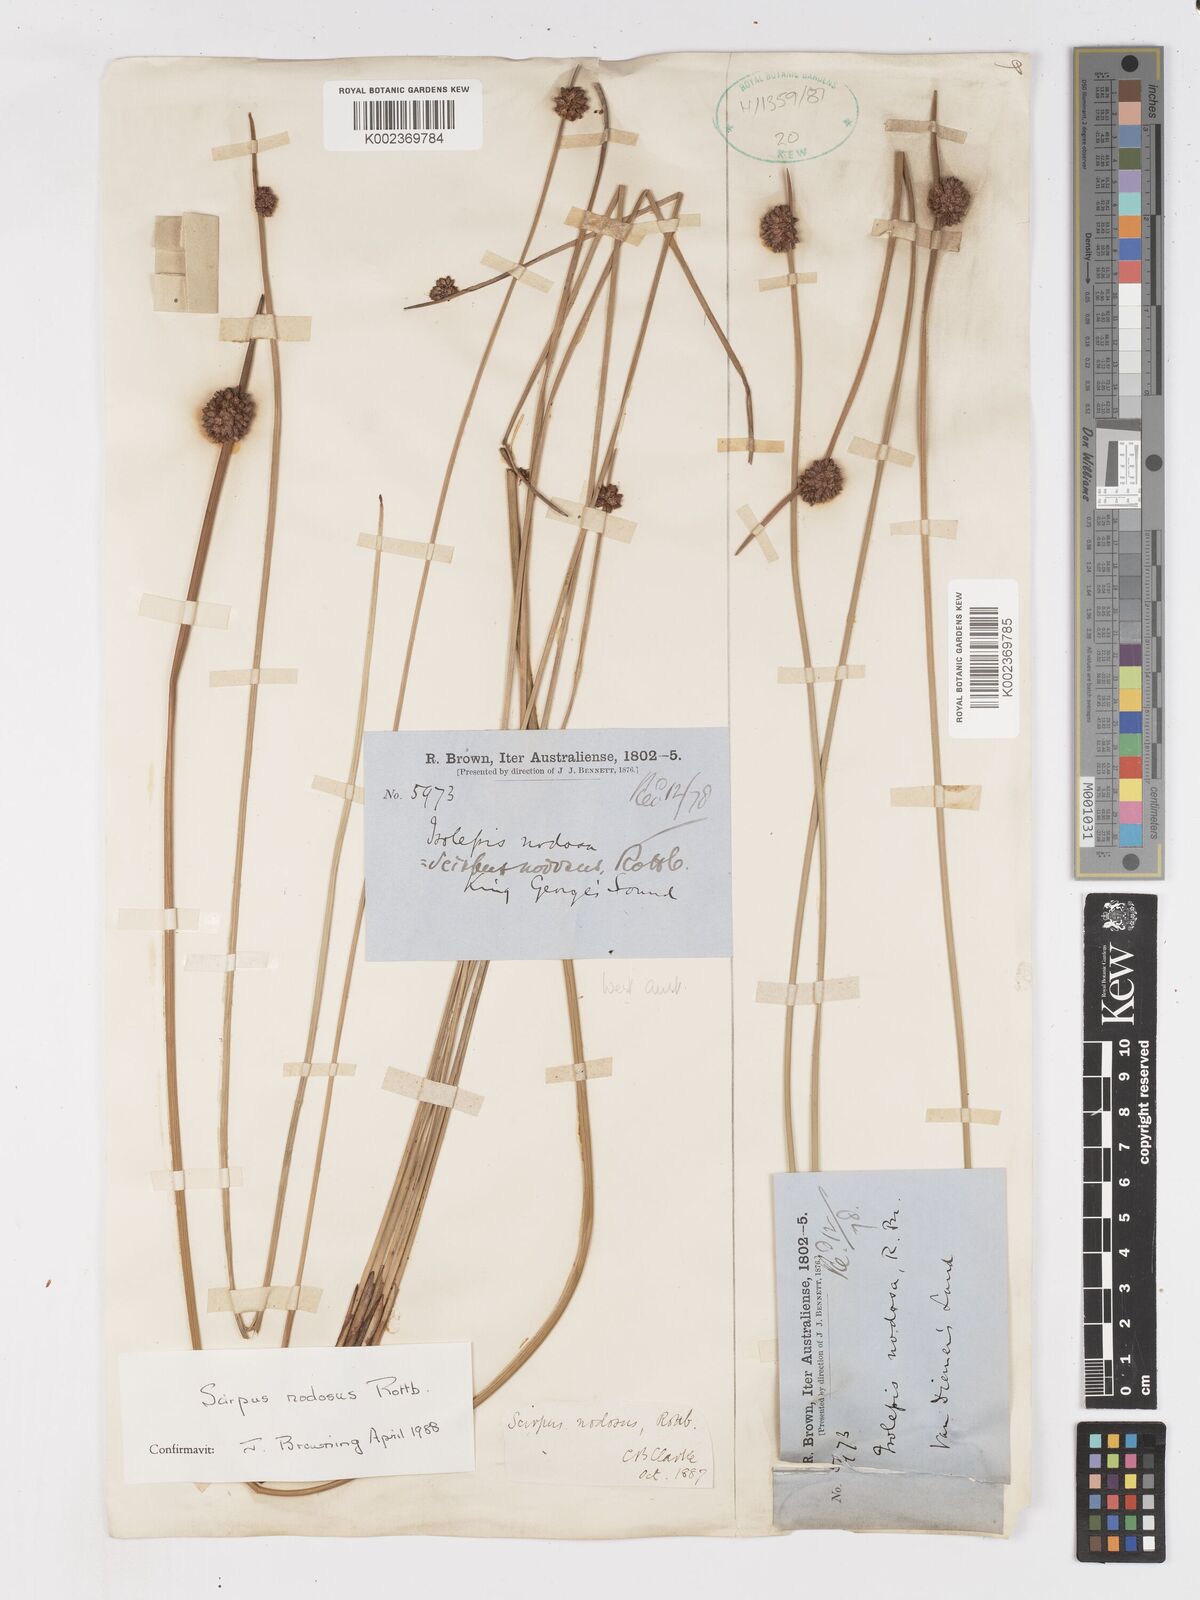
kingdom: Plantae
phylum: Tracheophyta
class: Liliopsida
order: Poales
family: Cyperaceae
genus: Ficinia
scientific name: Ficinia nodosa
